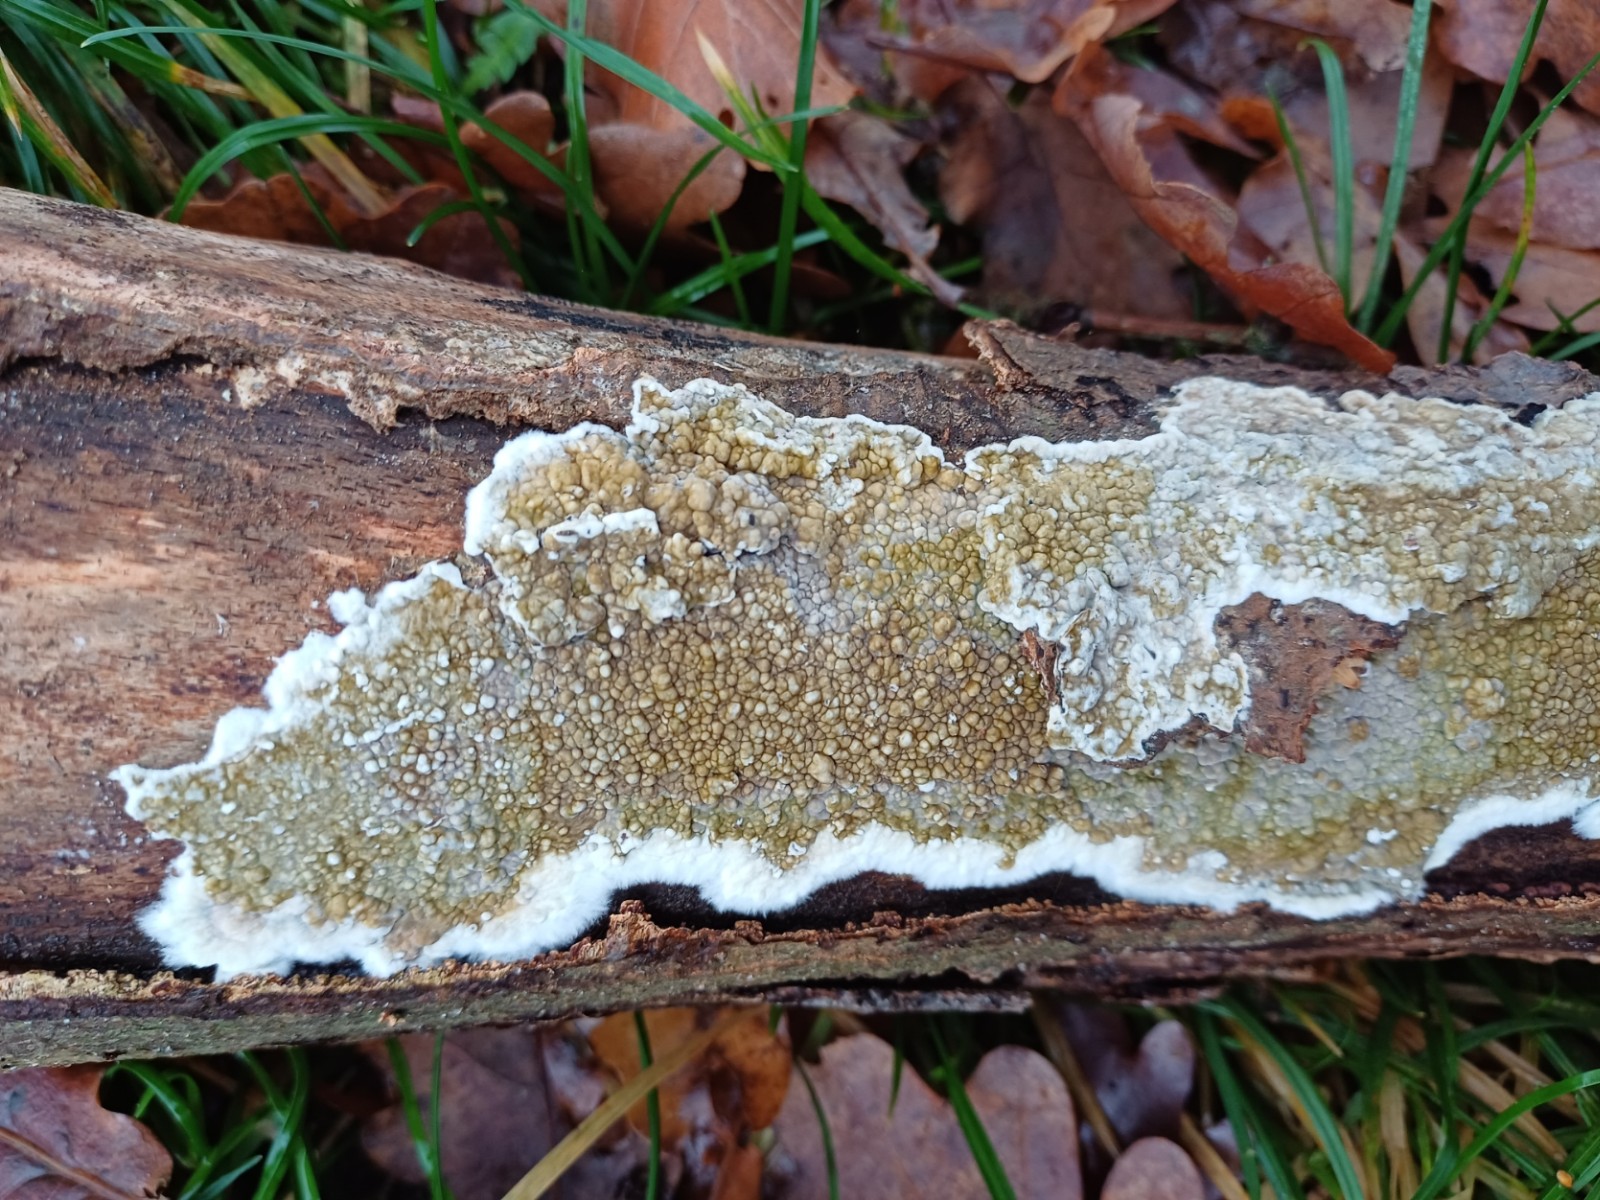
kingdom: Fungi
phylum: Basidiomycota
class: Agaricomycetes
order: Boletales
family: Coniophoraceae
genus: Coniophora
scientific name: Coniophora puteana
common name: gul tømmersvamp
